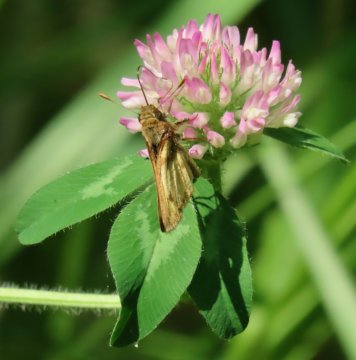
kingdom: Animalia
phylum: Arthropoda
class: Insecta
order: Lepidoptera
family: Hesperiidae
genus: Lon
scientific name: Lon zabulon
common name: Zabulon Skipper
